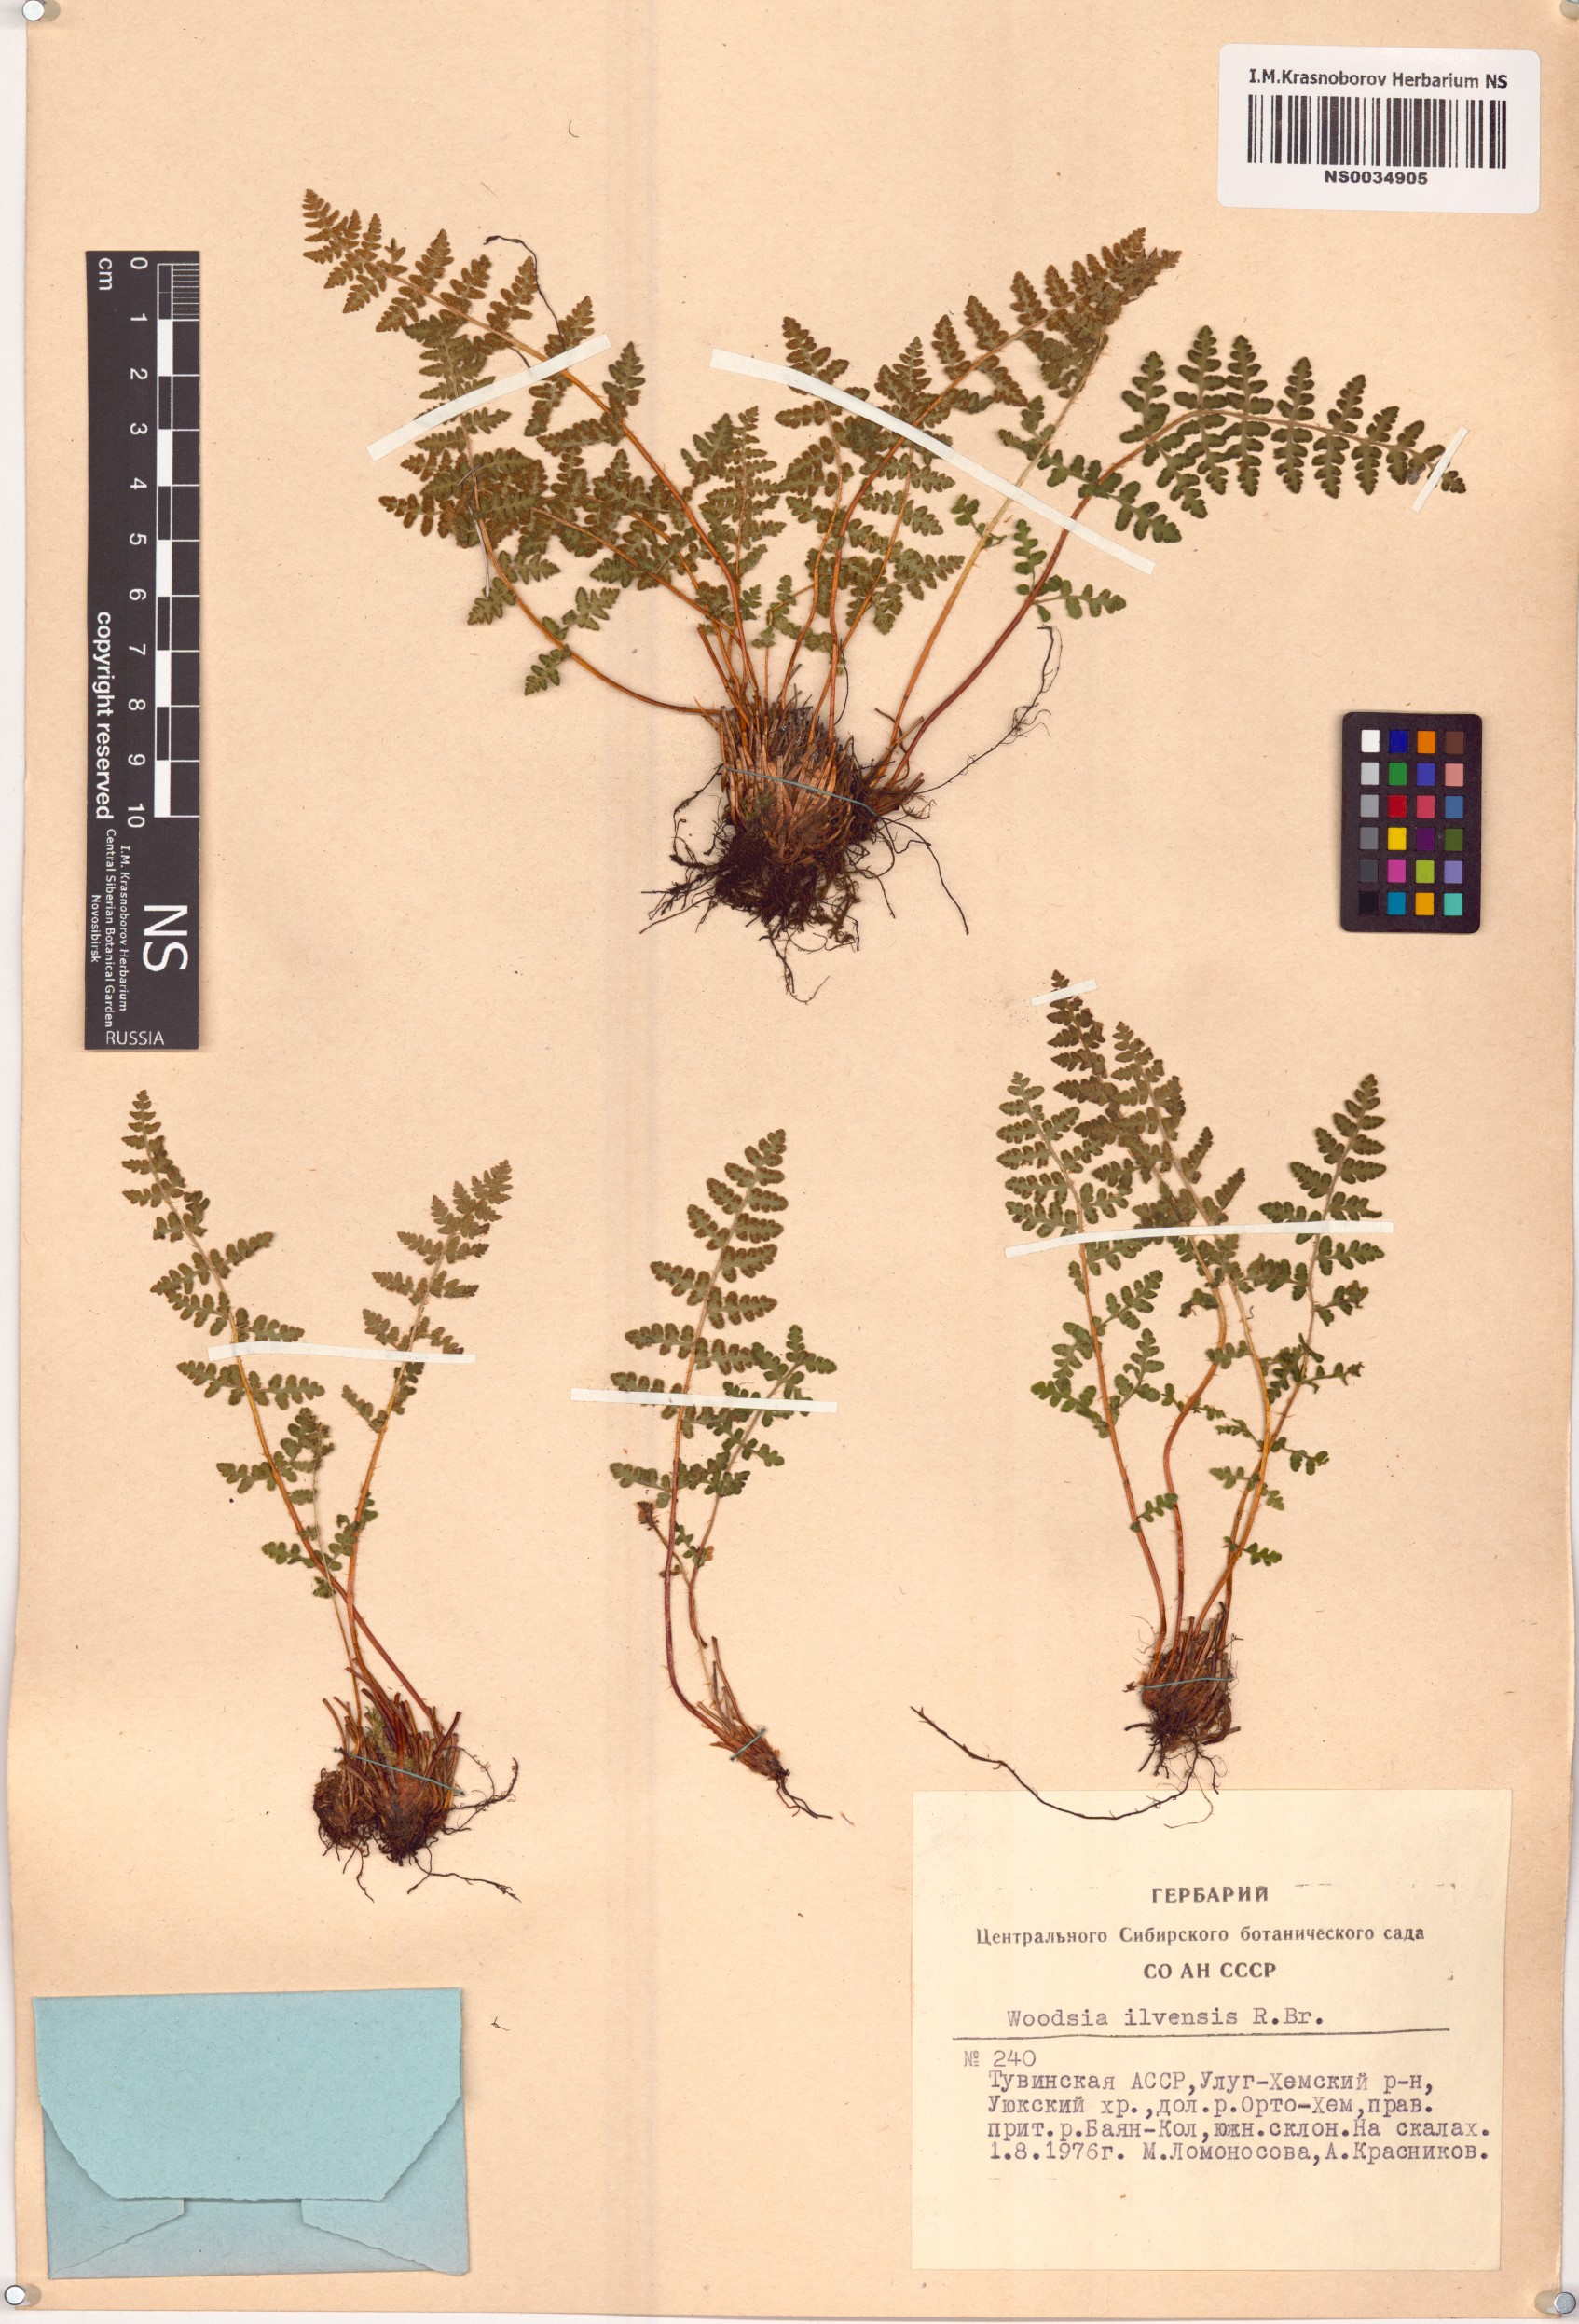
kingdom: Plantae
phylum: Tracheophyta
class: Polypodiopsida
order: Polypodiales
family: Woodsiaceae
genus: Woodsia
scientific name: Woodsia ilvensis
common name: Fragrant woodsia
